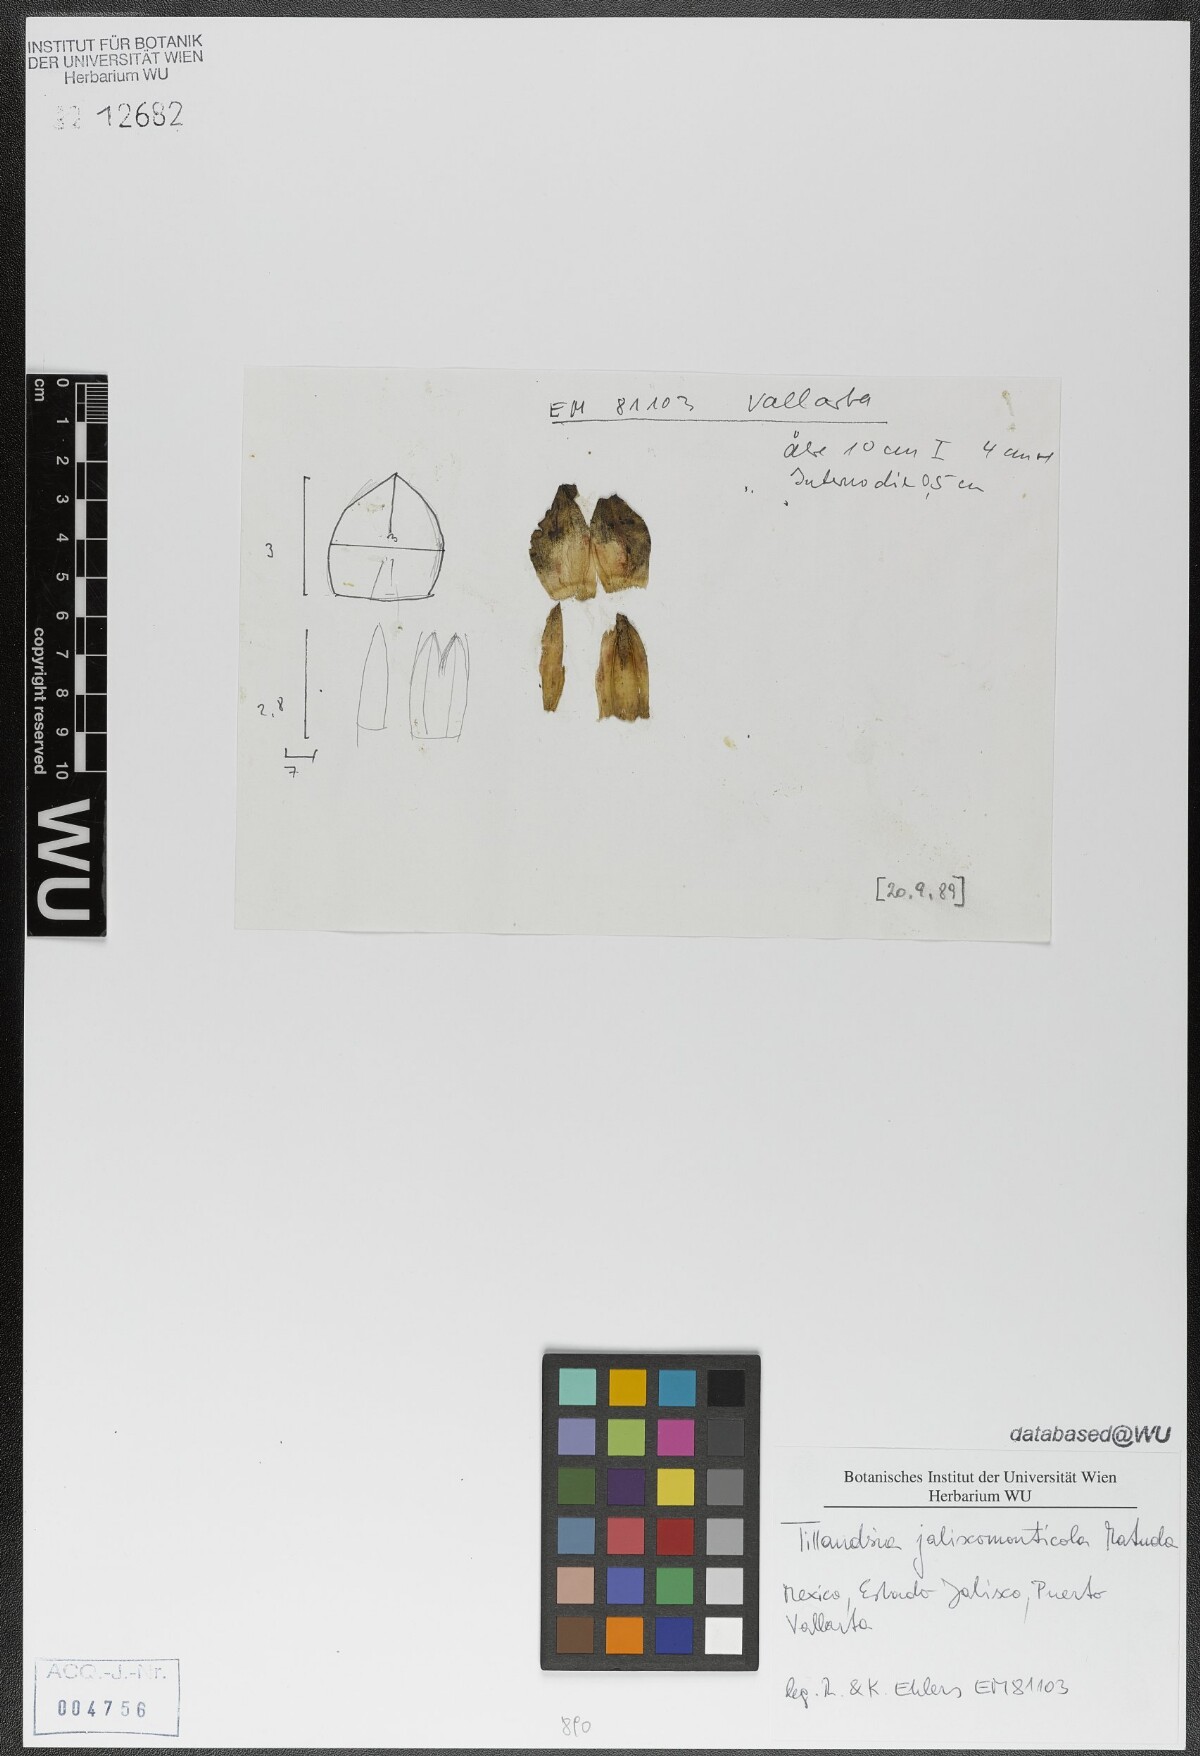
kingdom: Plantae
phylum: Tracheophyta
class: Liliopsida
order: Poales
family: Bromeliaceae
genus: Tillandsia
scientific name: Tillandsia compressa
